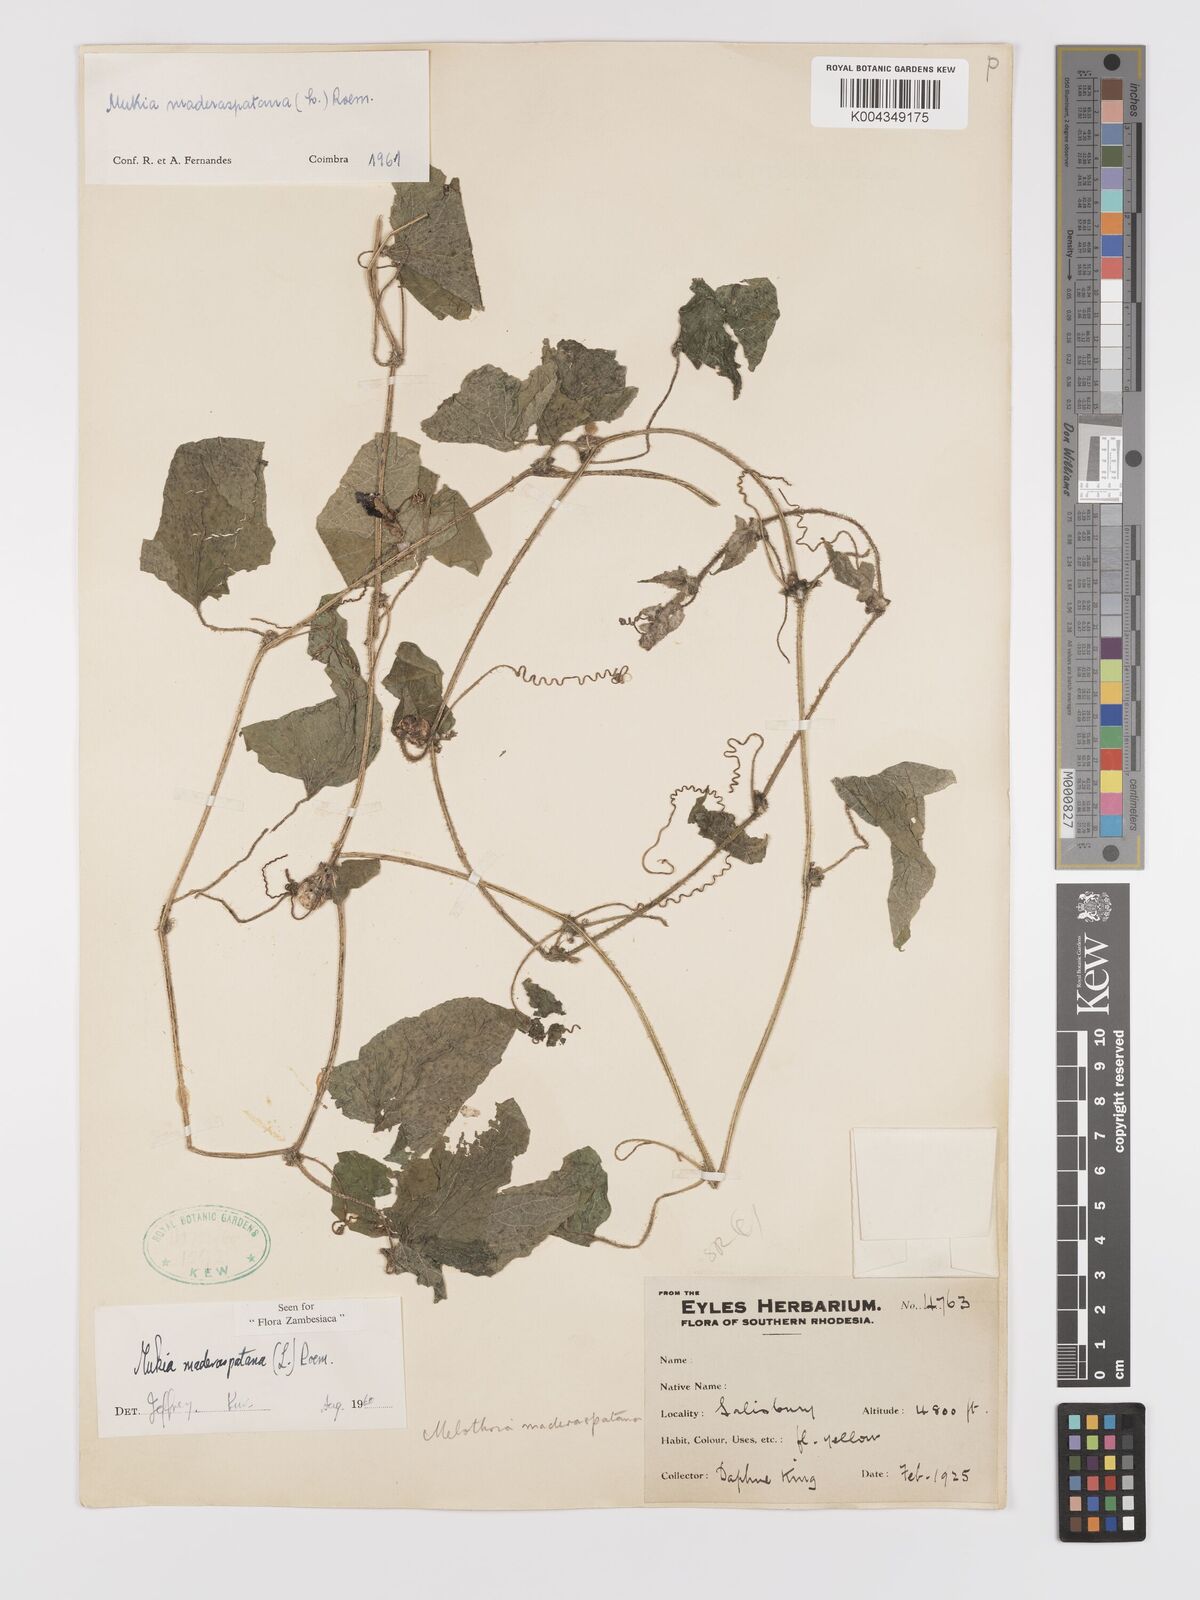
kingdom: Plantae
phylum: Tracheophyta
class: Magnoliopsida
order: Cucurbitales
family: Cucurbitaceae
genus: Cucumis
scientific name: Cucumis maderaspatanus
